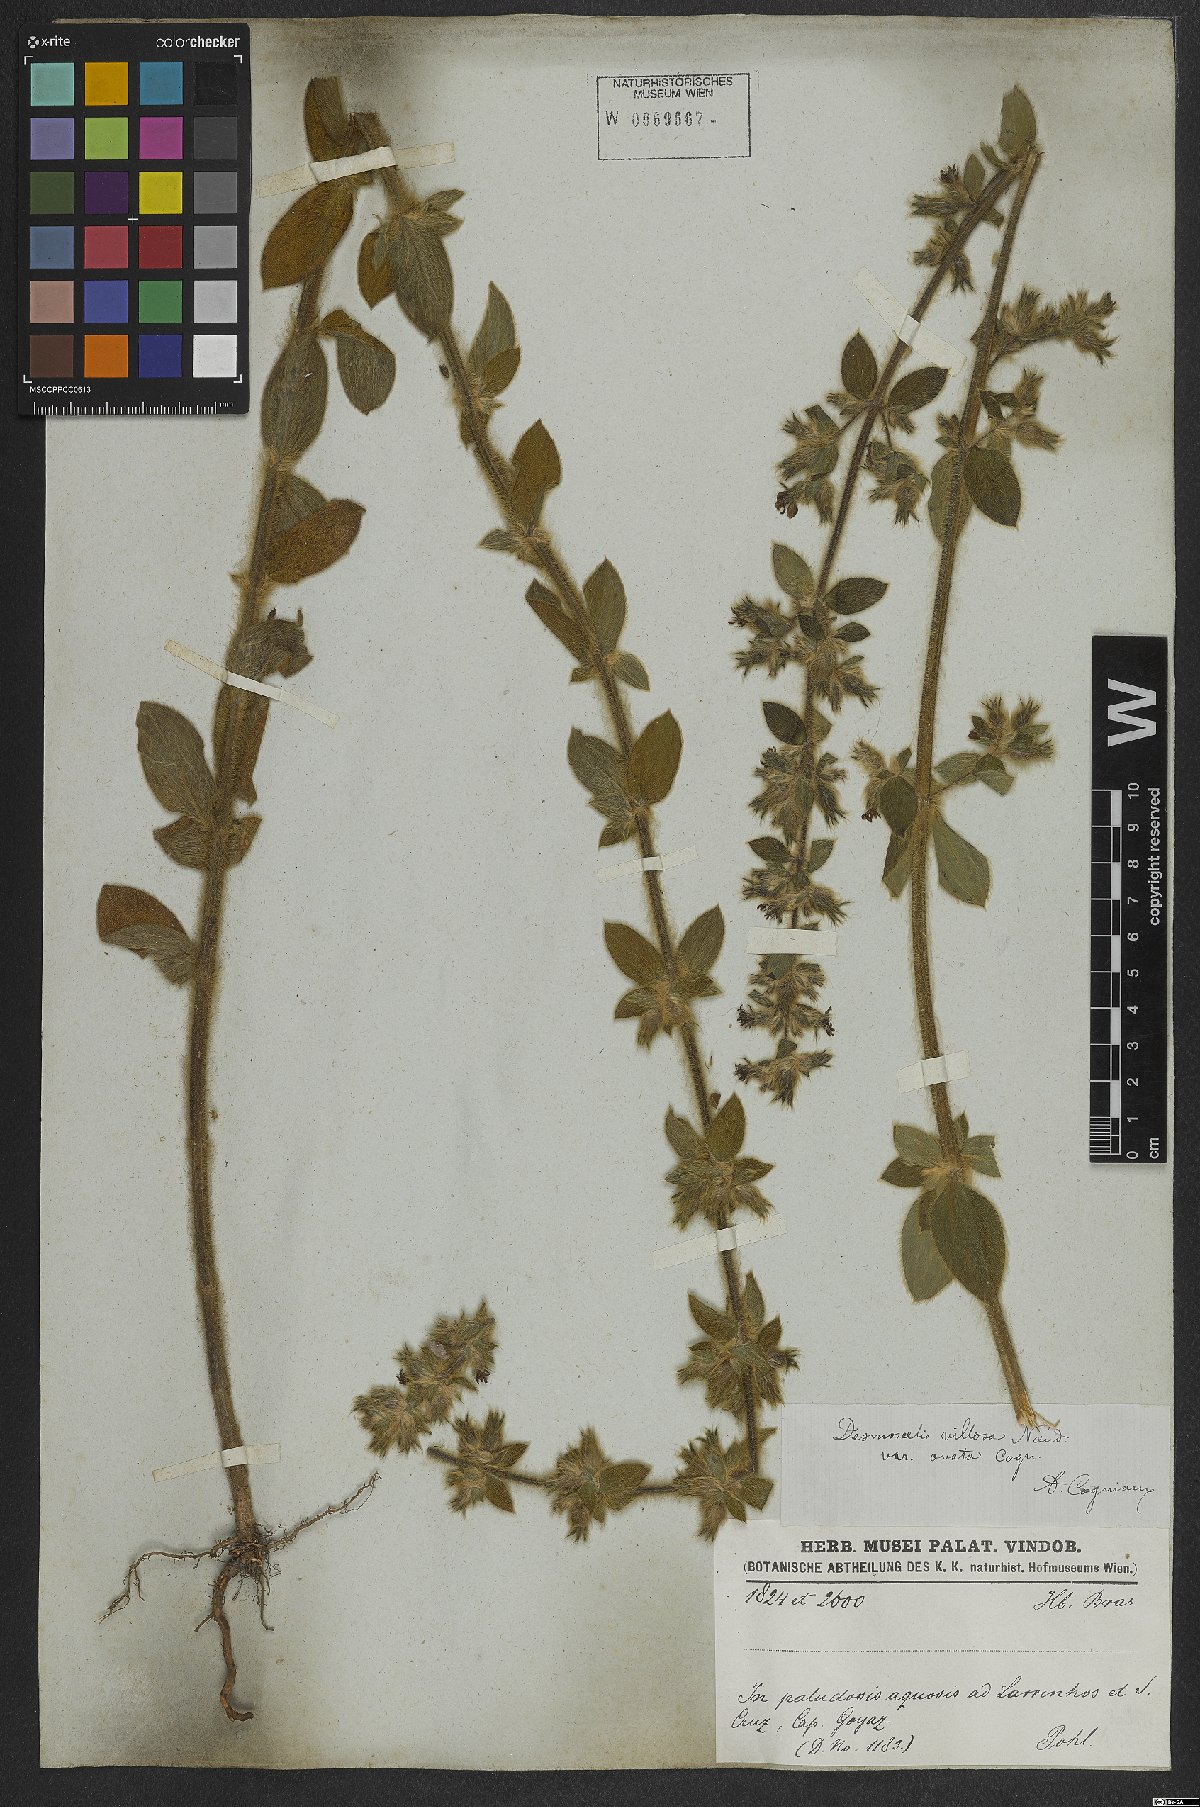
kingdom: Plantae
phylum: Tracheophyta
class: Magnoliopsida
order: Myrtales
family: Melastomataceae
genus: Desmoscelis
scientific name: Desmoscelis villosa
